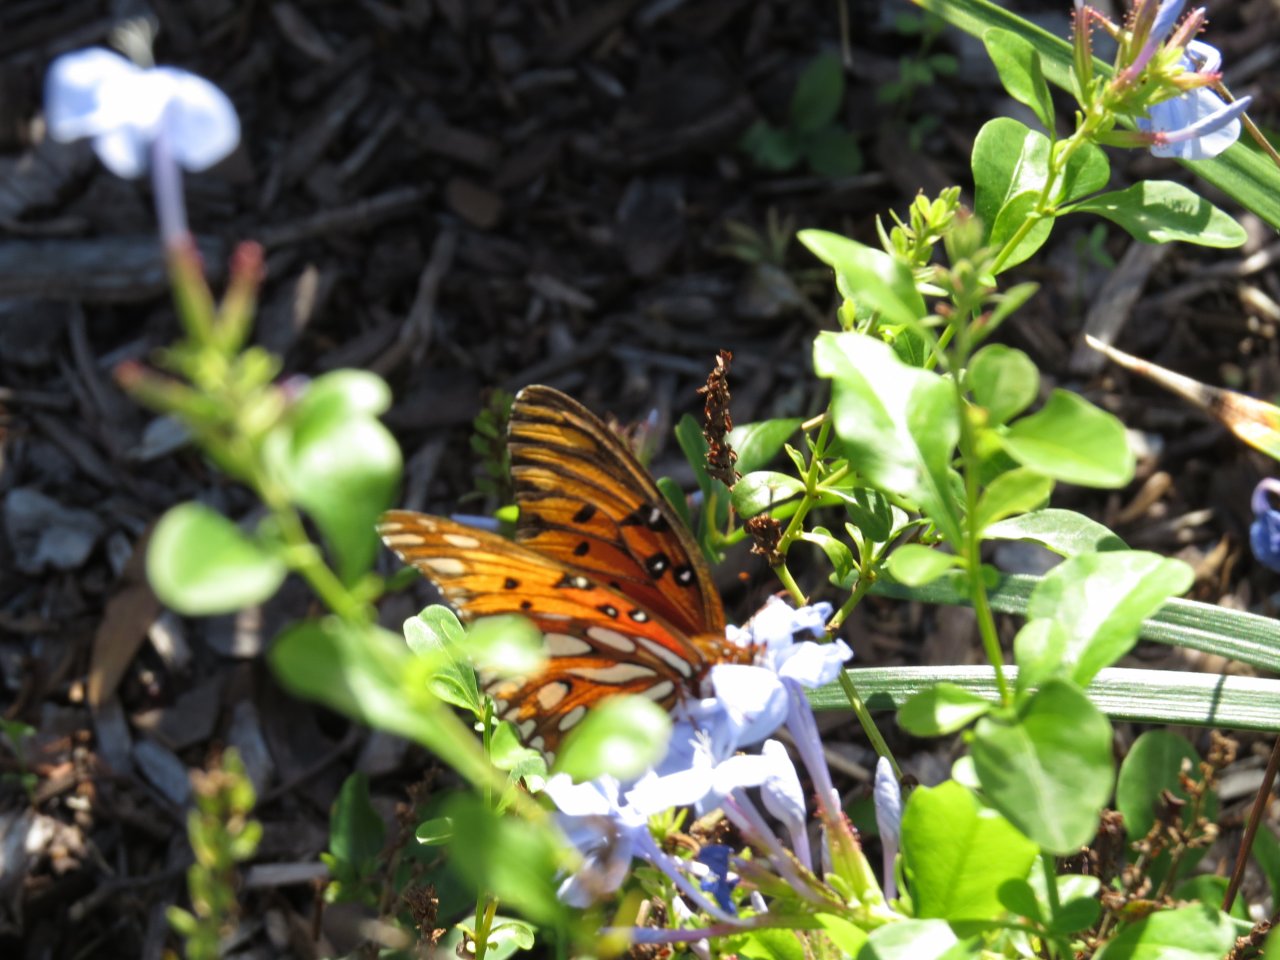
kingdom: Animalia
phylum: Arthropoda
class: Insecta
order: Lepidoptera
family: Nymphalidae
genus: Dione
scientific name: Dione vanillae
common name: Gulf Fritillary
